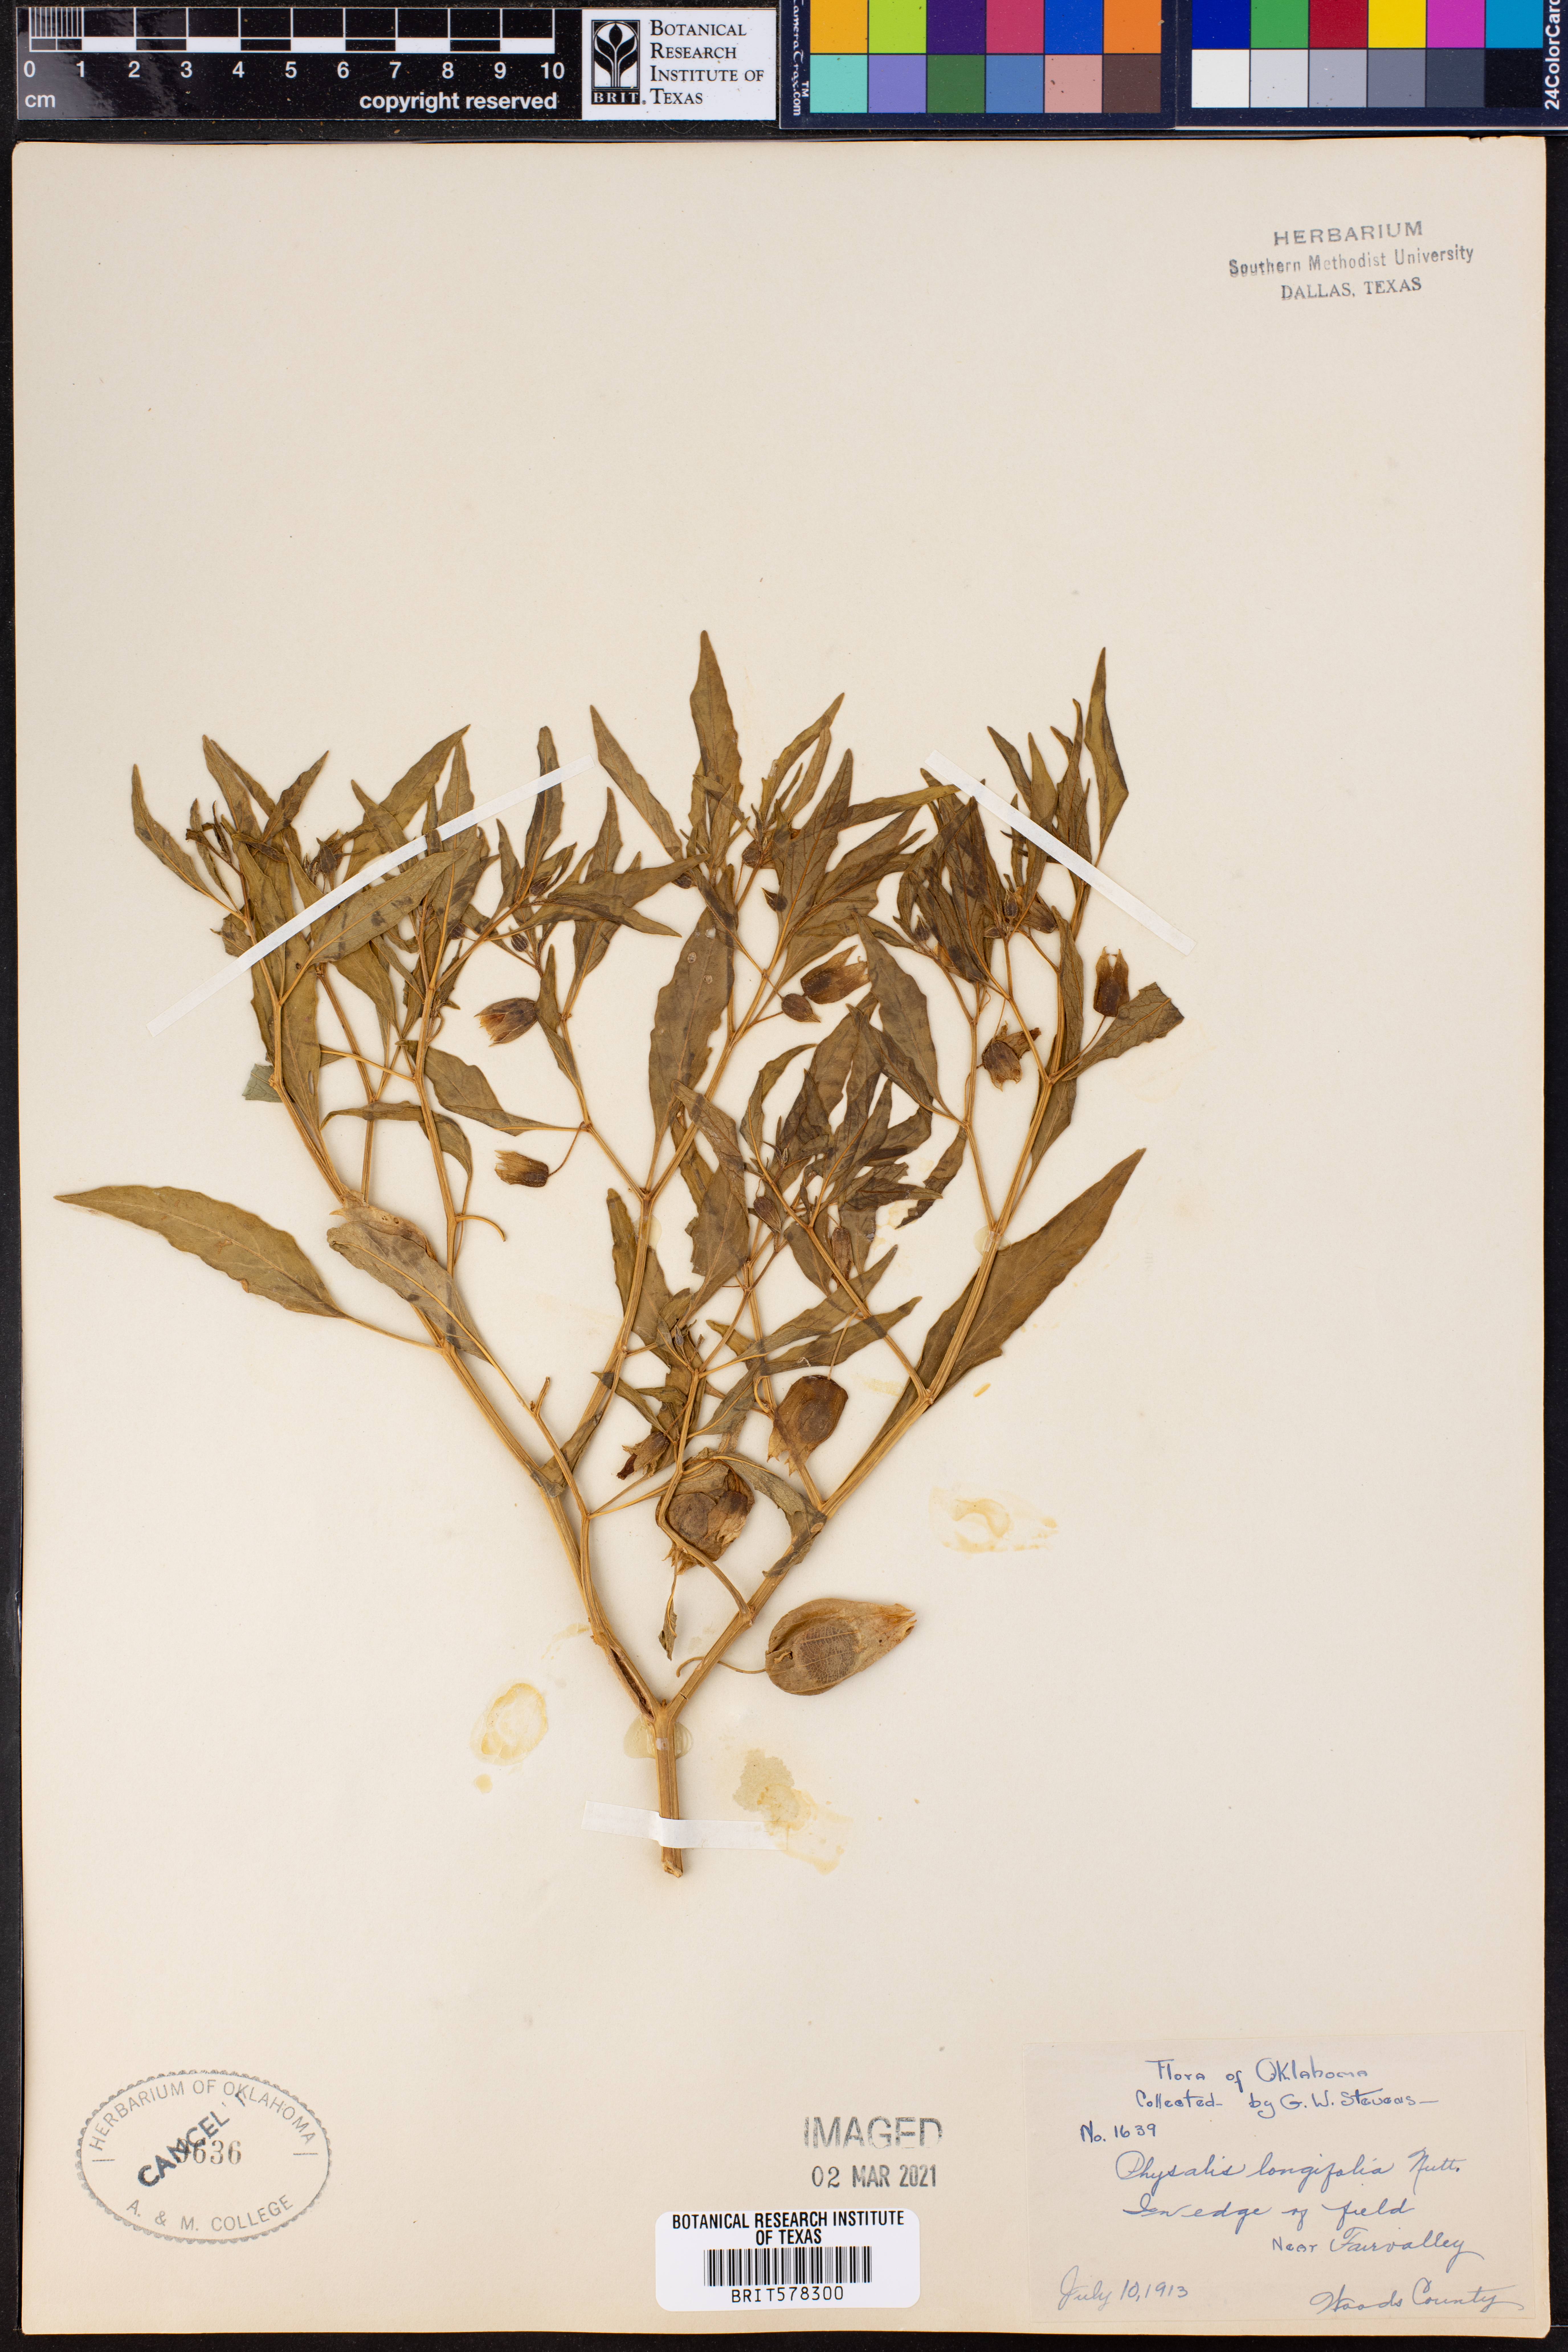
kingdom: Plantae
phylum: Tracheophyta
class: Magnoliopsida
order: Solanales
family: Solanaceae
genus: Physalis
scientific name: Physalis longifolia
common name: Common ground-cherry
